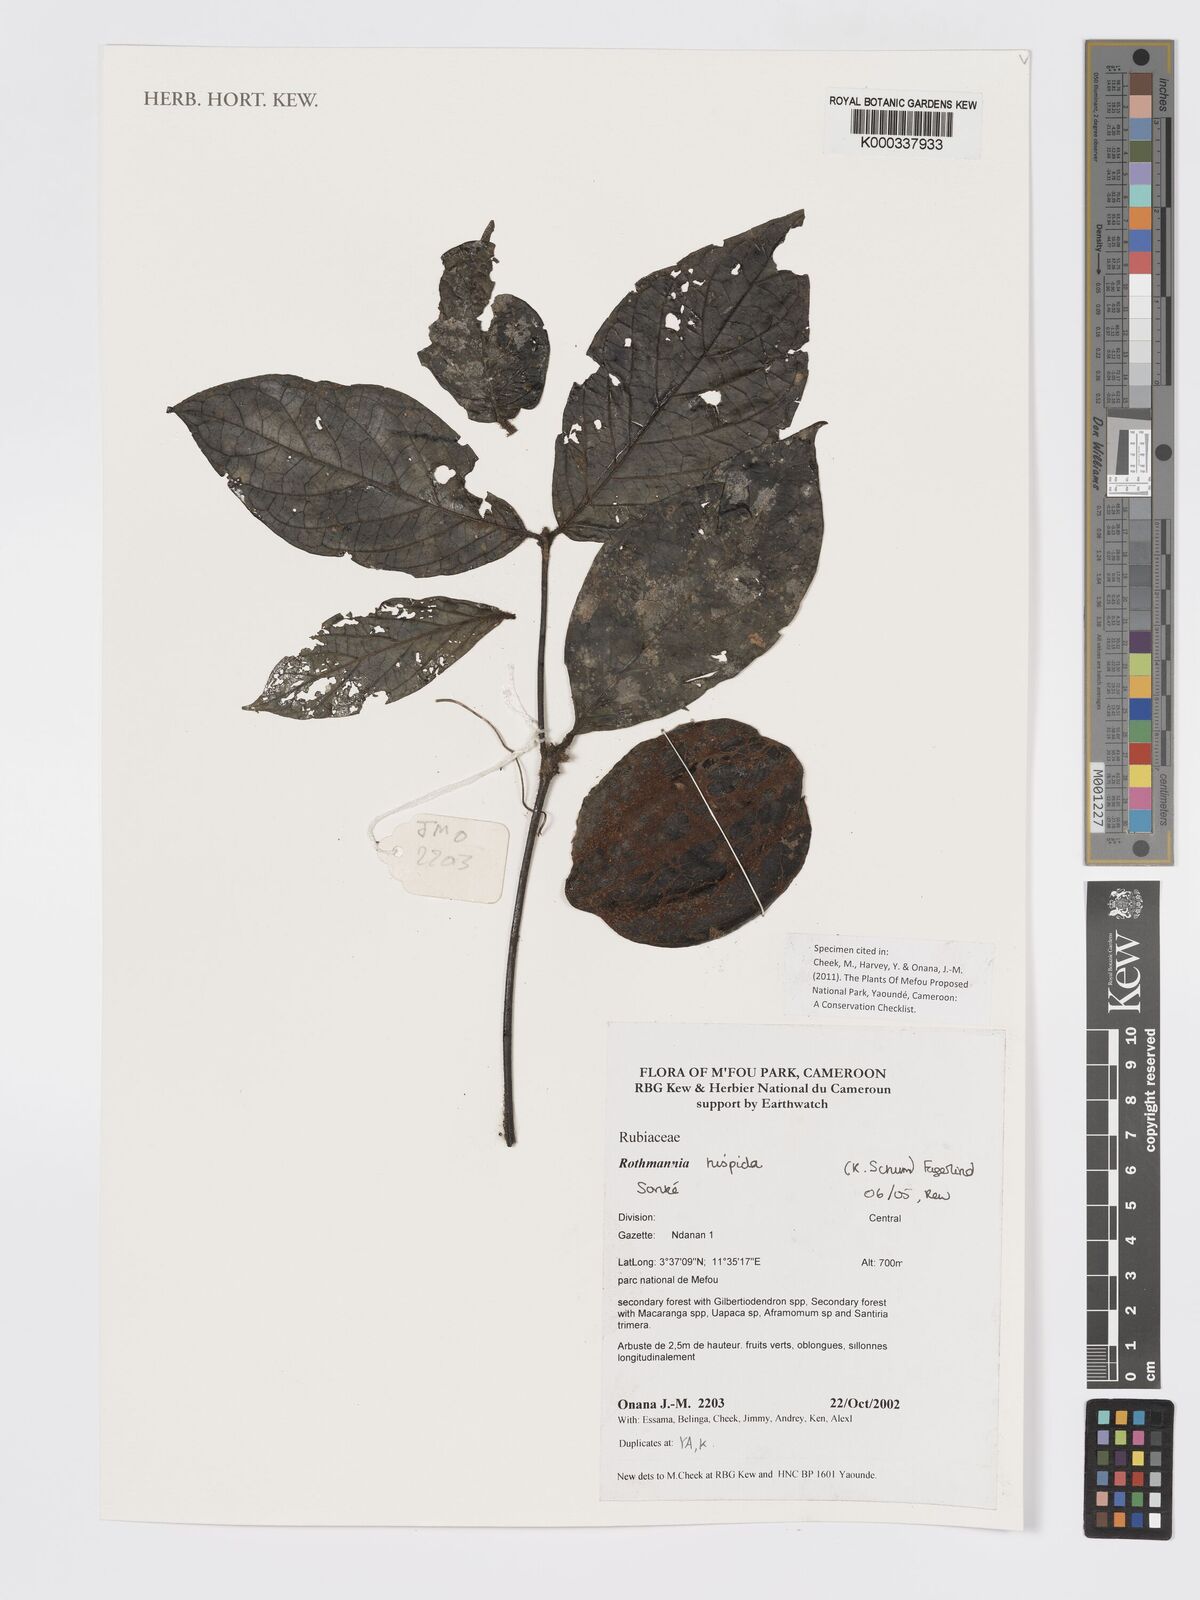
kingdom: Plantae
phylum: Tracheophyta
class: Magnoliopsida
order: Gentianales
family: Rubiaceae
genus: Rothmannia
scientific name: Rothmannia hispida
